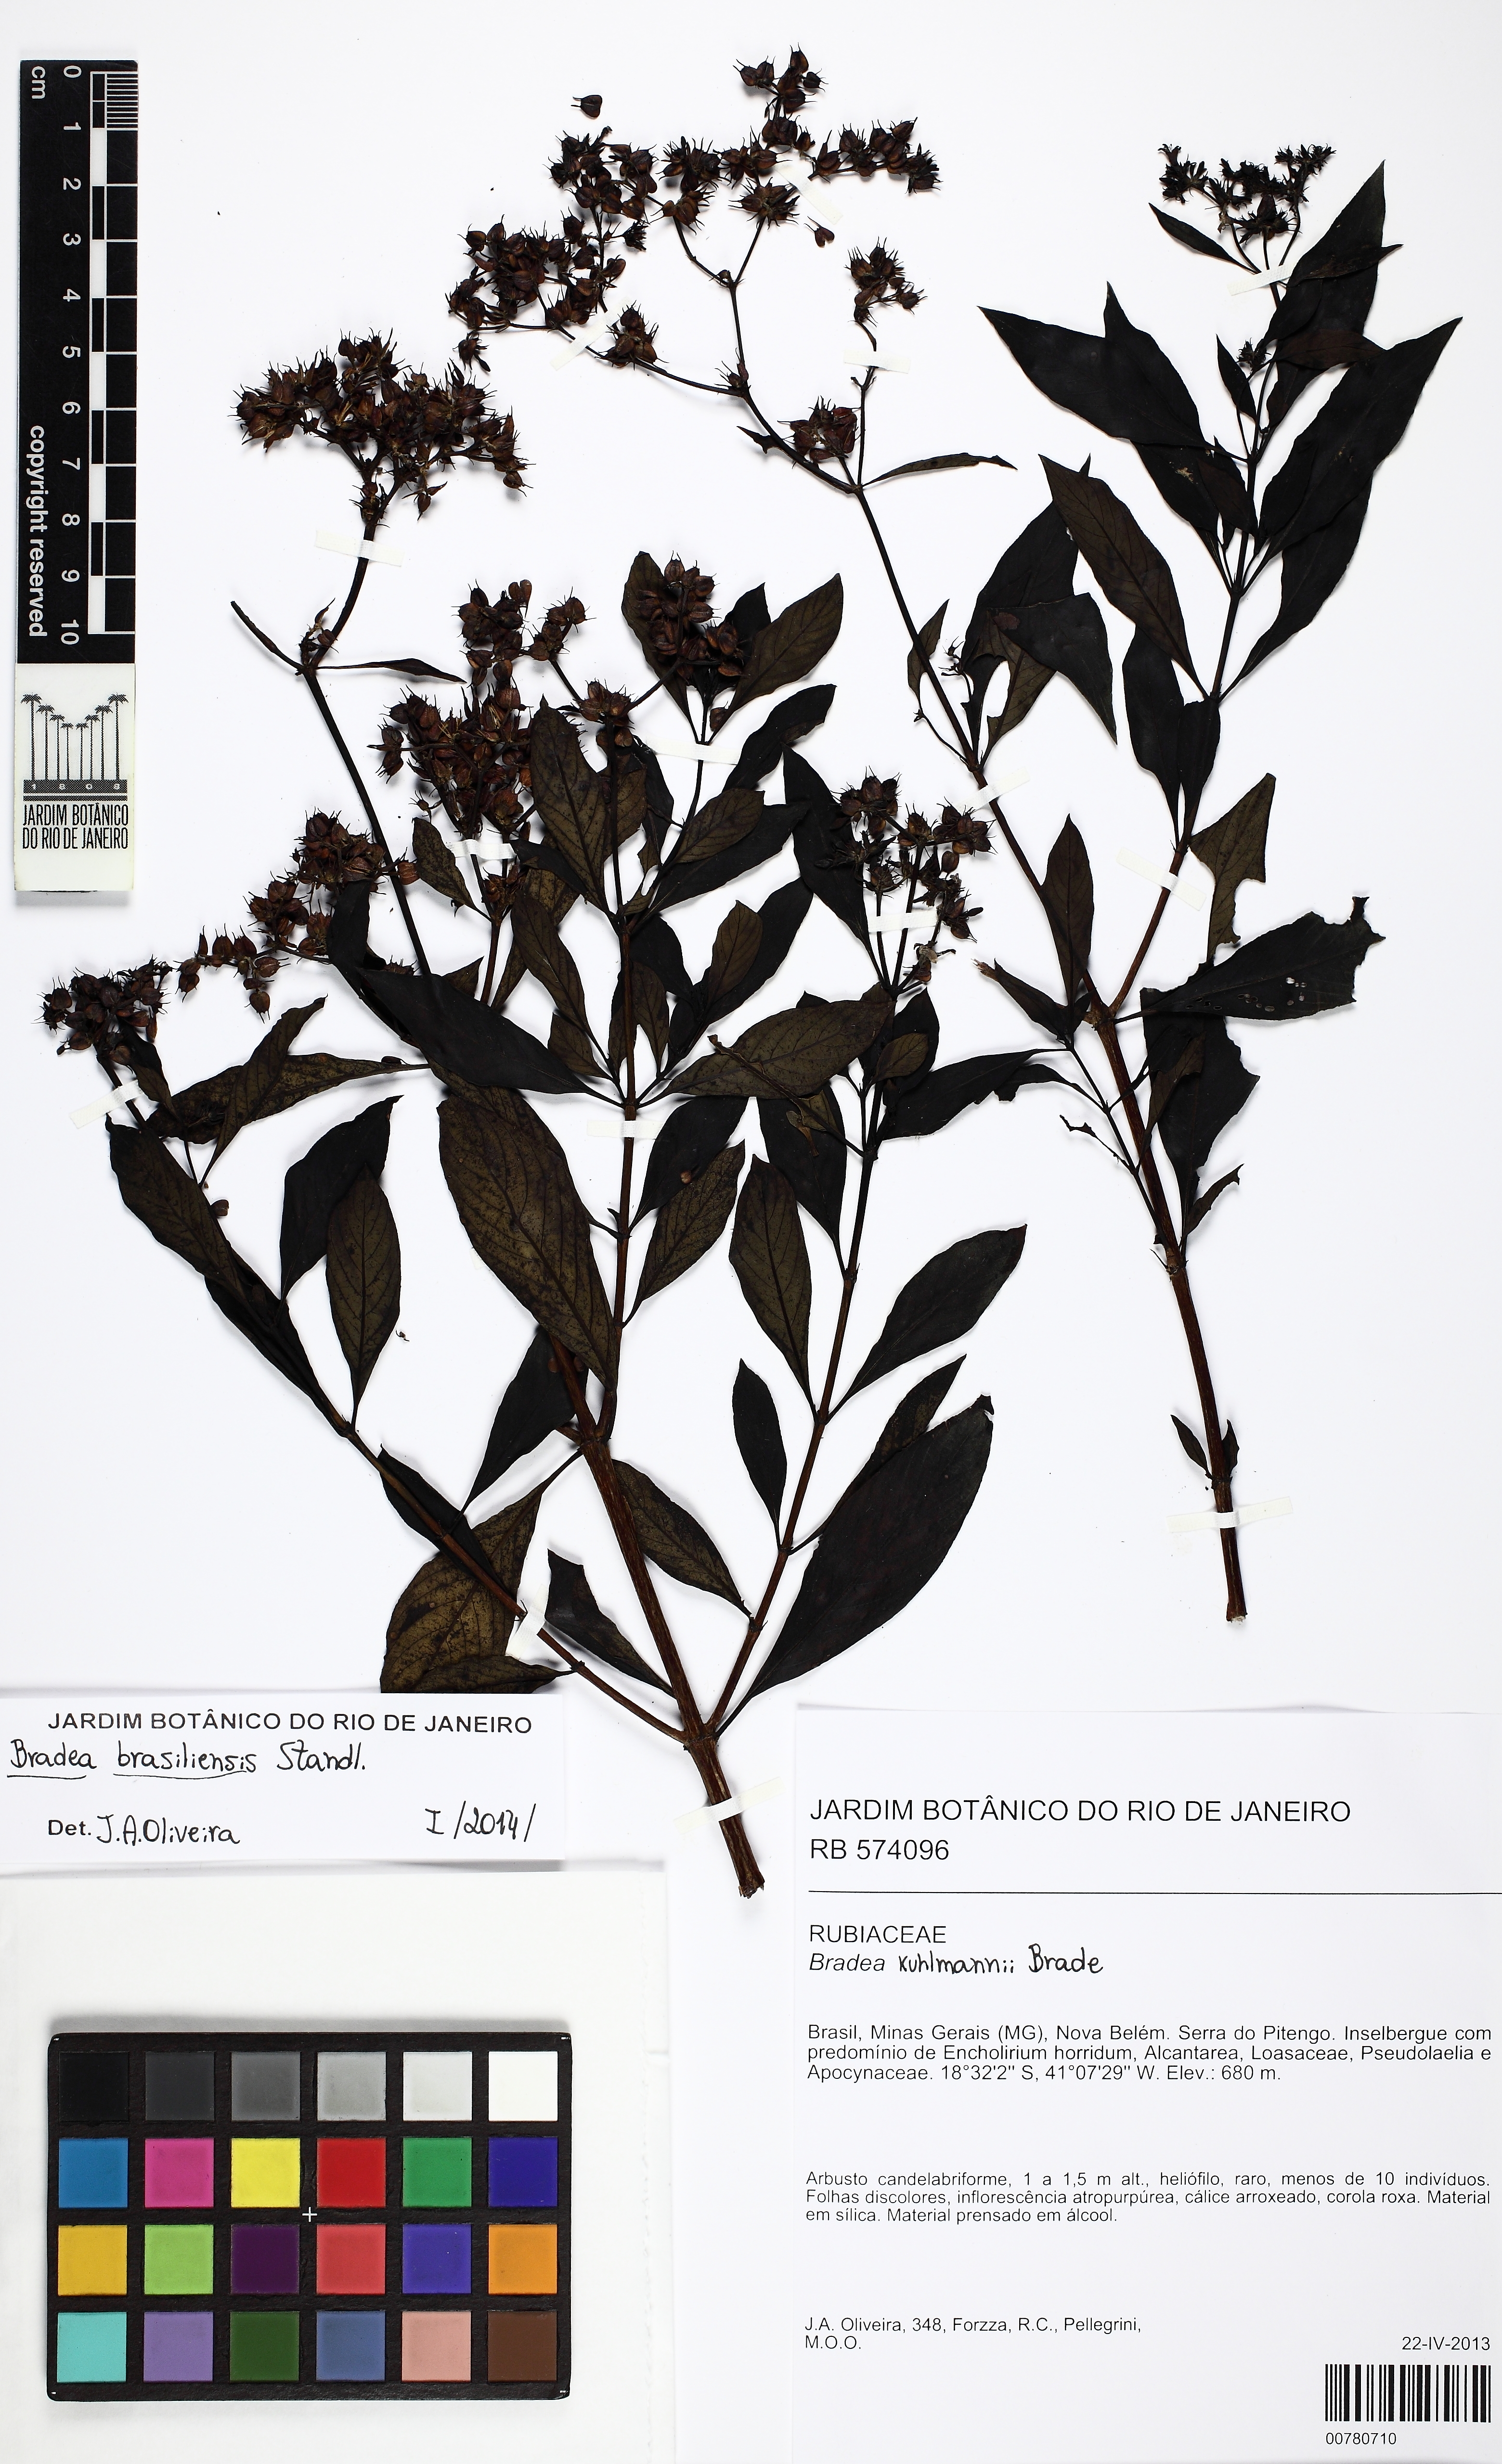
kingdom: Plantae
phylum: Tracheophyta
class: Magnoliopsida
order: Gentianales
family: Rubiaceae
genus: Bradea
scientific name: Bradea brasiliensis
